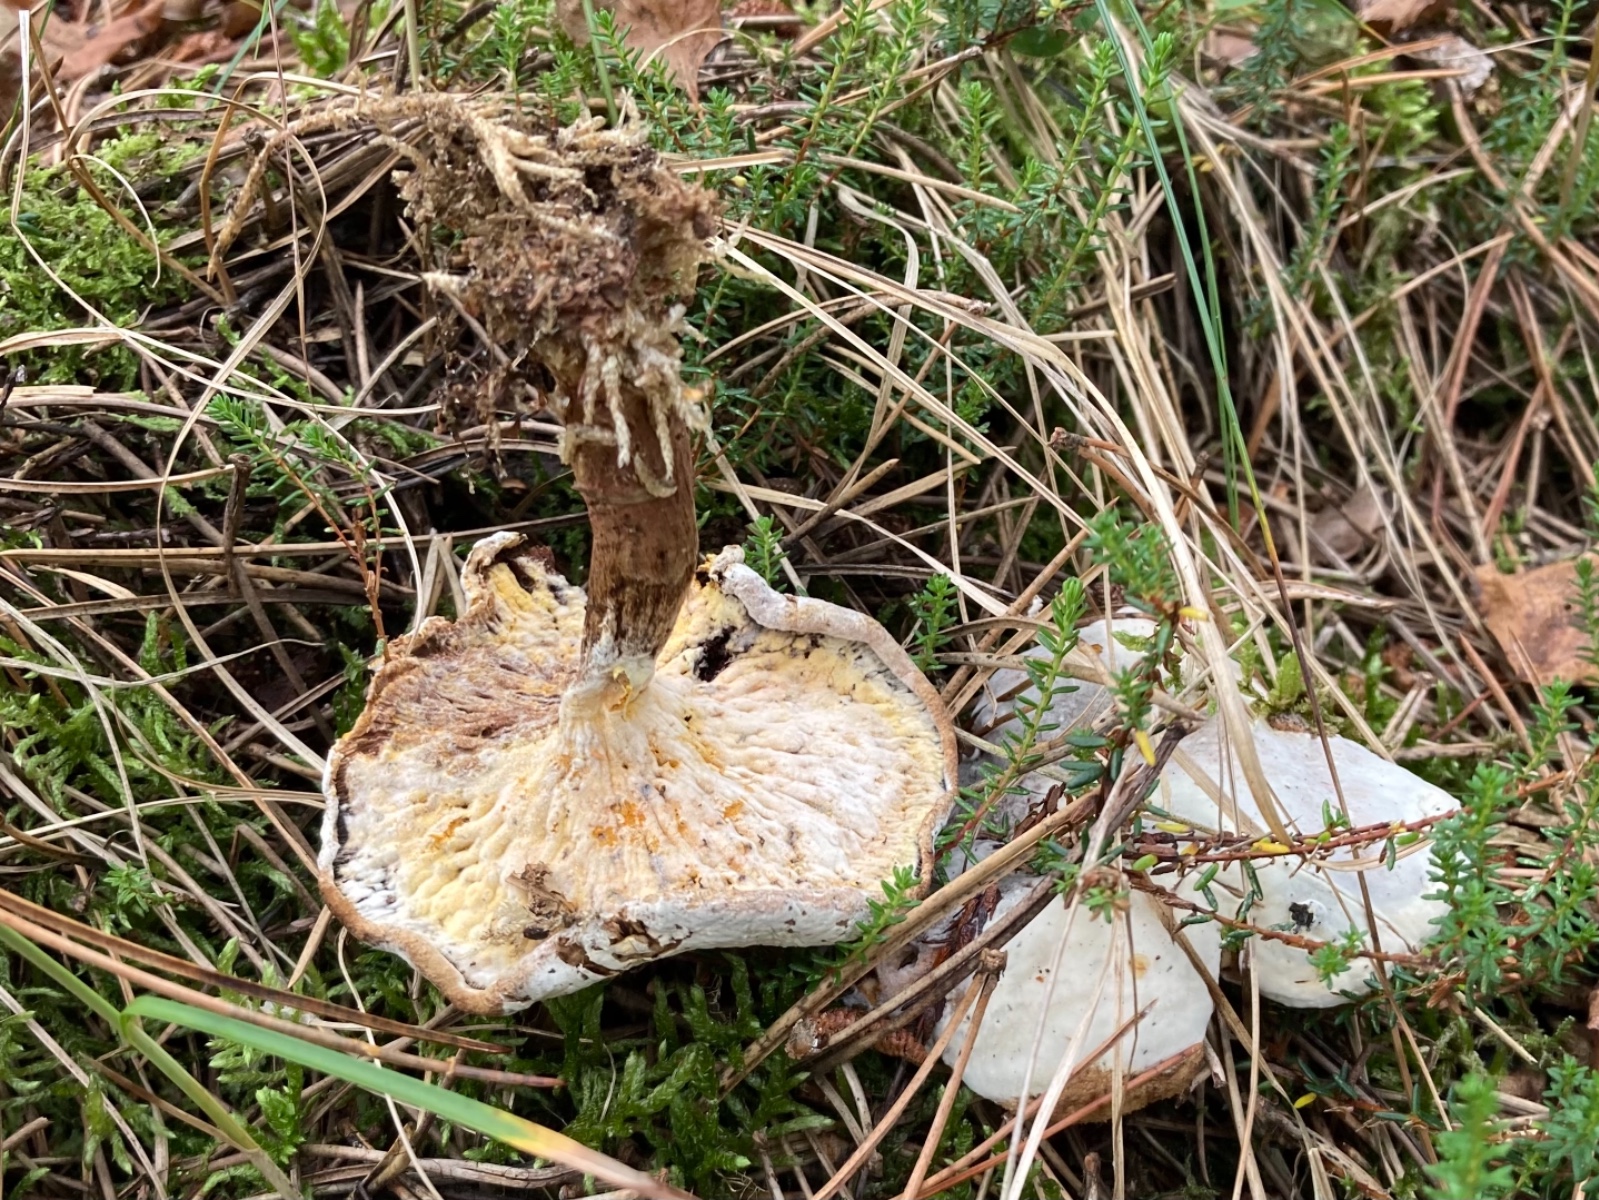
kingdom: Fungi
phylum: Ascomycota
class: Sordariomycetes
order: Hypocreales
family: Hypocreaceae
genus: Hypomyces
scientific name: Hypomyces chrysospermus
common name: gulskimmel-snylteskorpe
